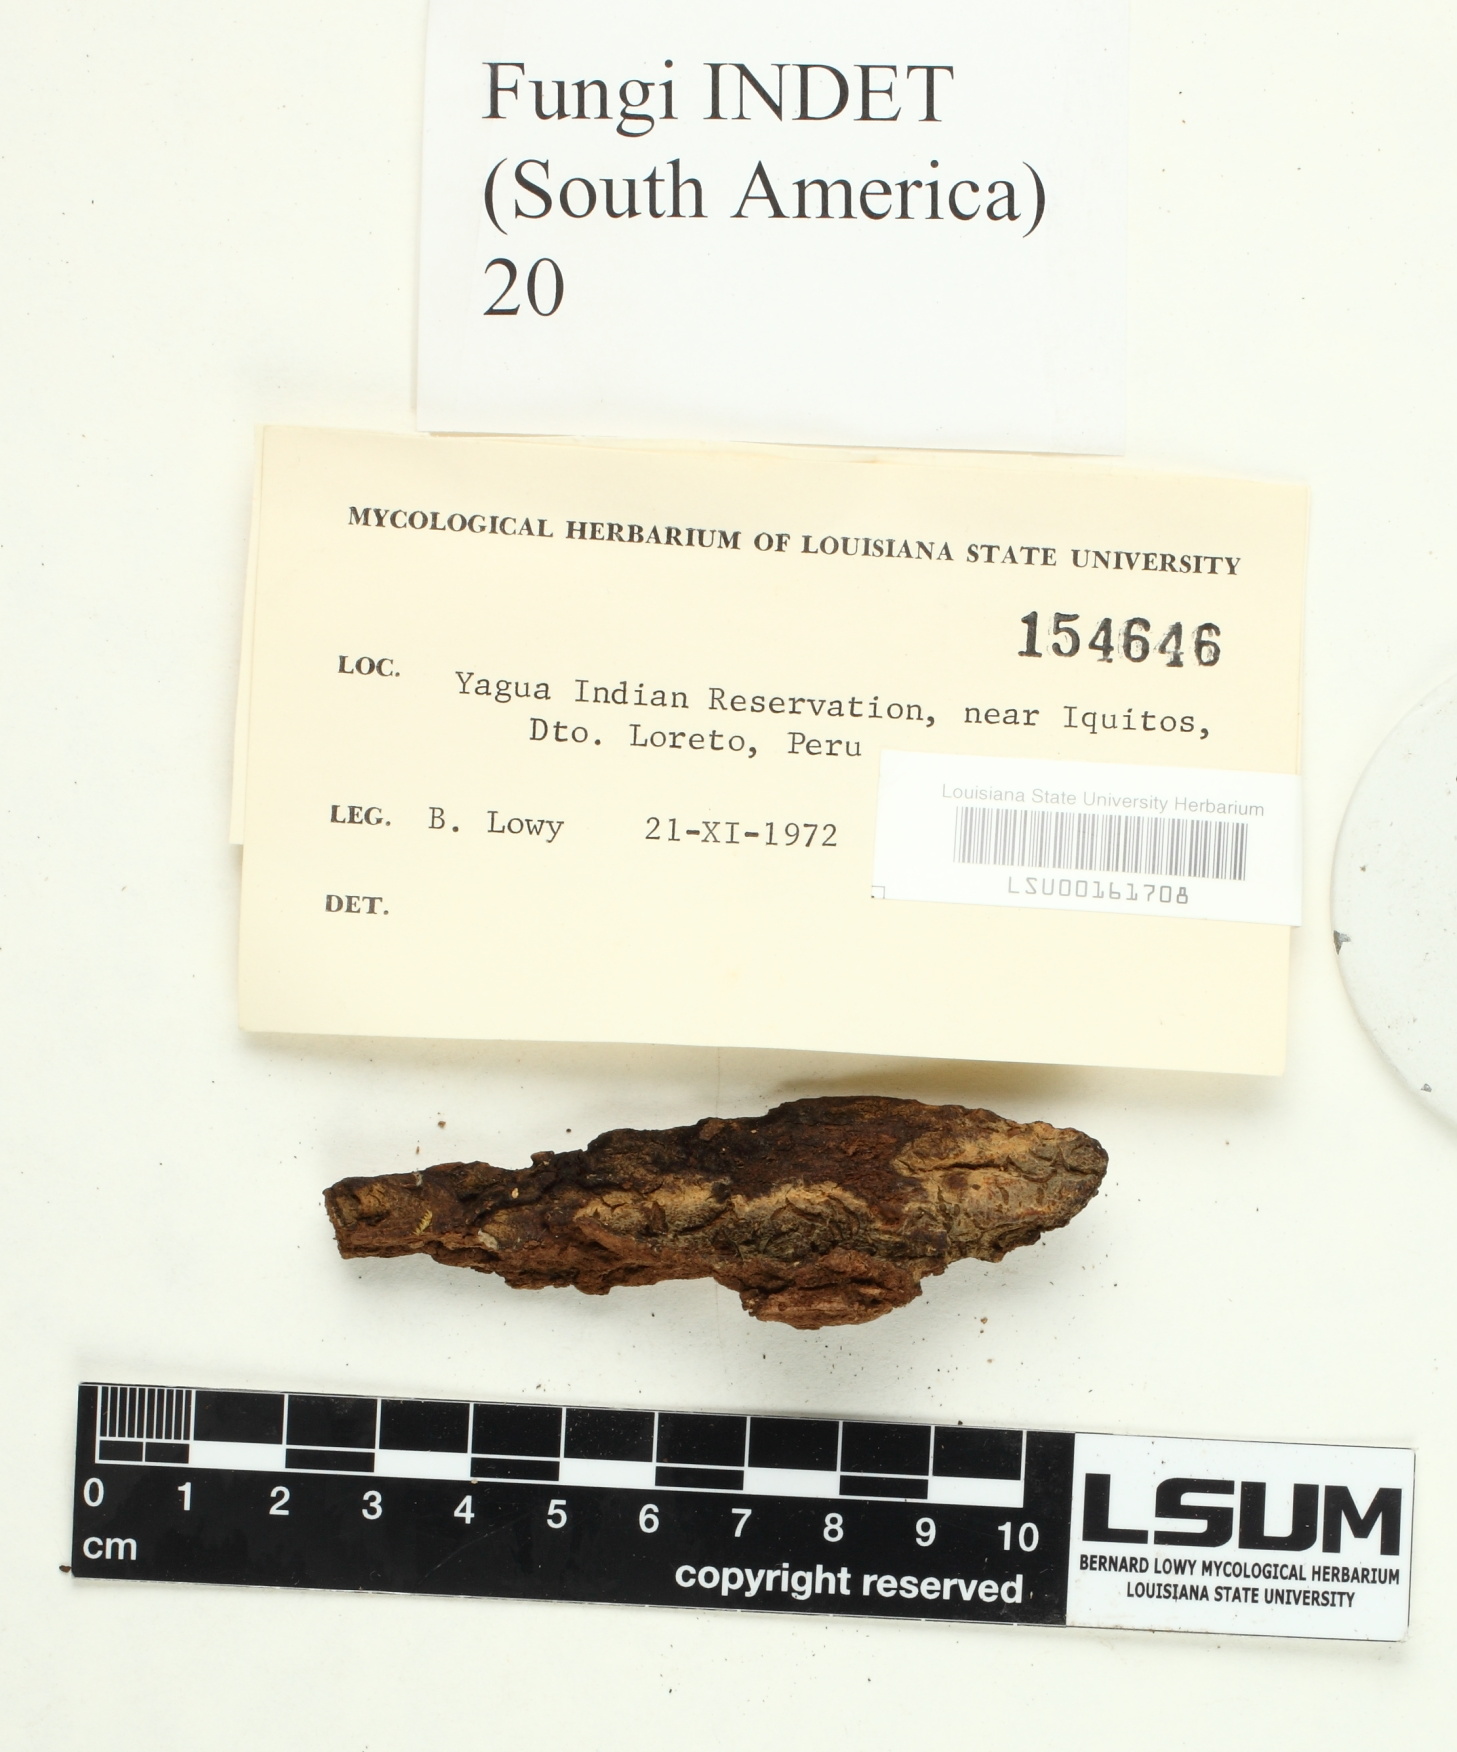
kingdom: Fungi
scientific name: Fungi
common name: Fungi
